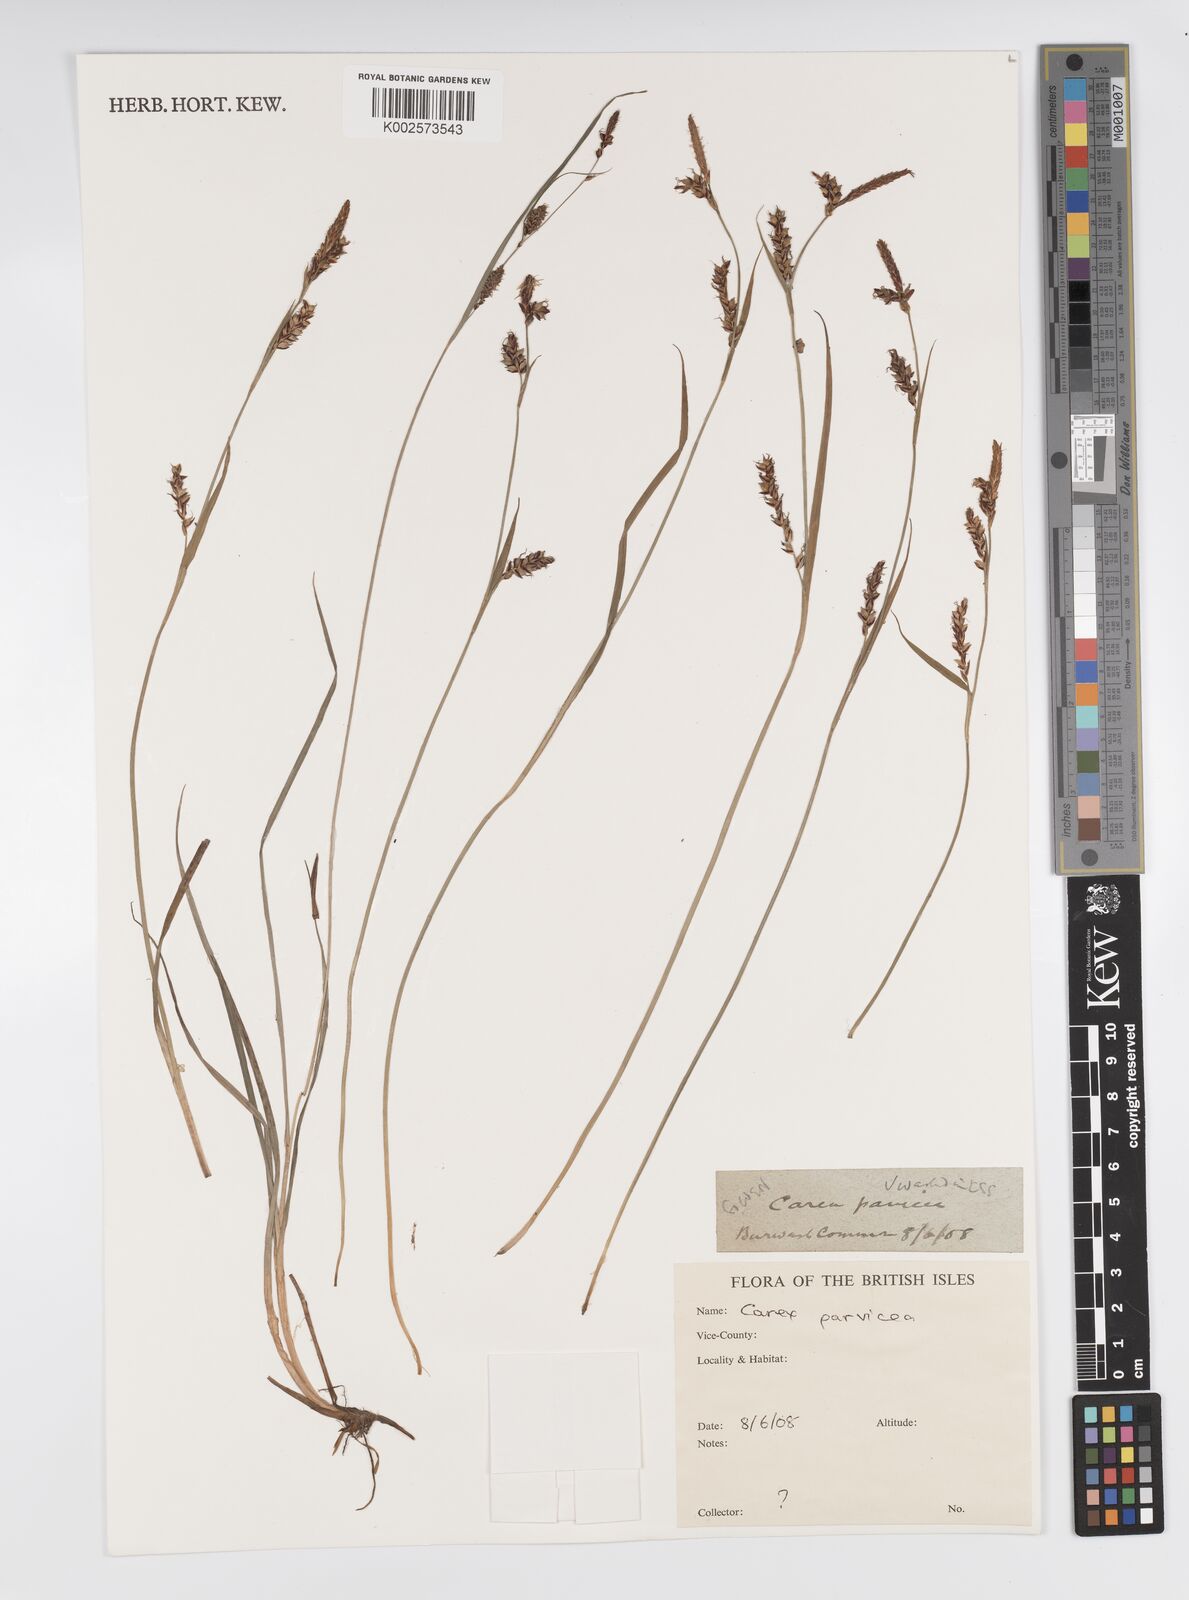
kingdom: Plantae
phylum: Tracheophyta
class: Liliopsida
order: Poales
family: Cyperaceae
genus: Carex
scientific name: Carex panicea
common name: Carnation sedge
